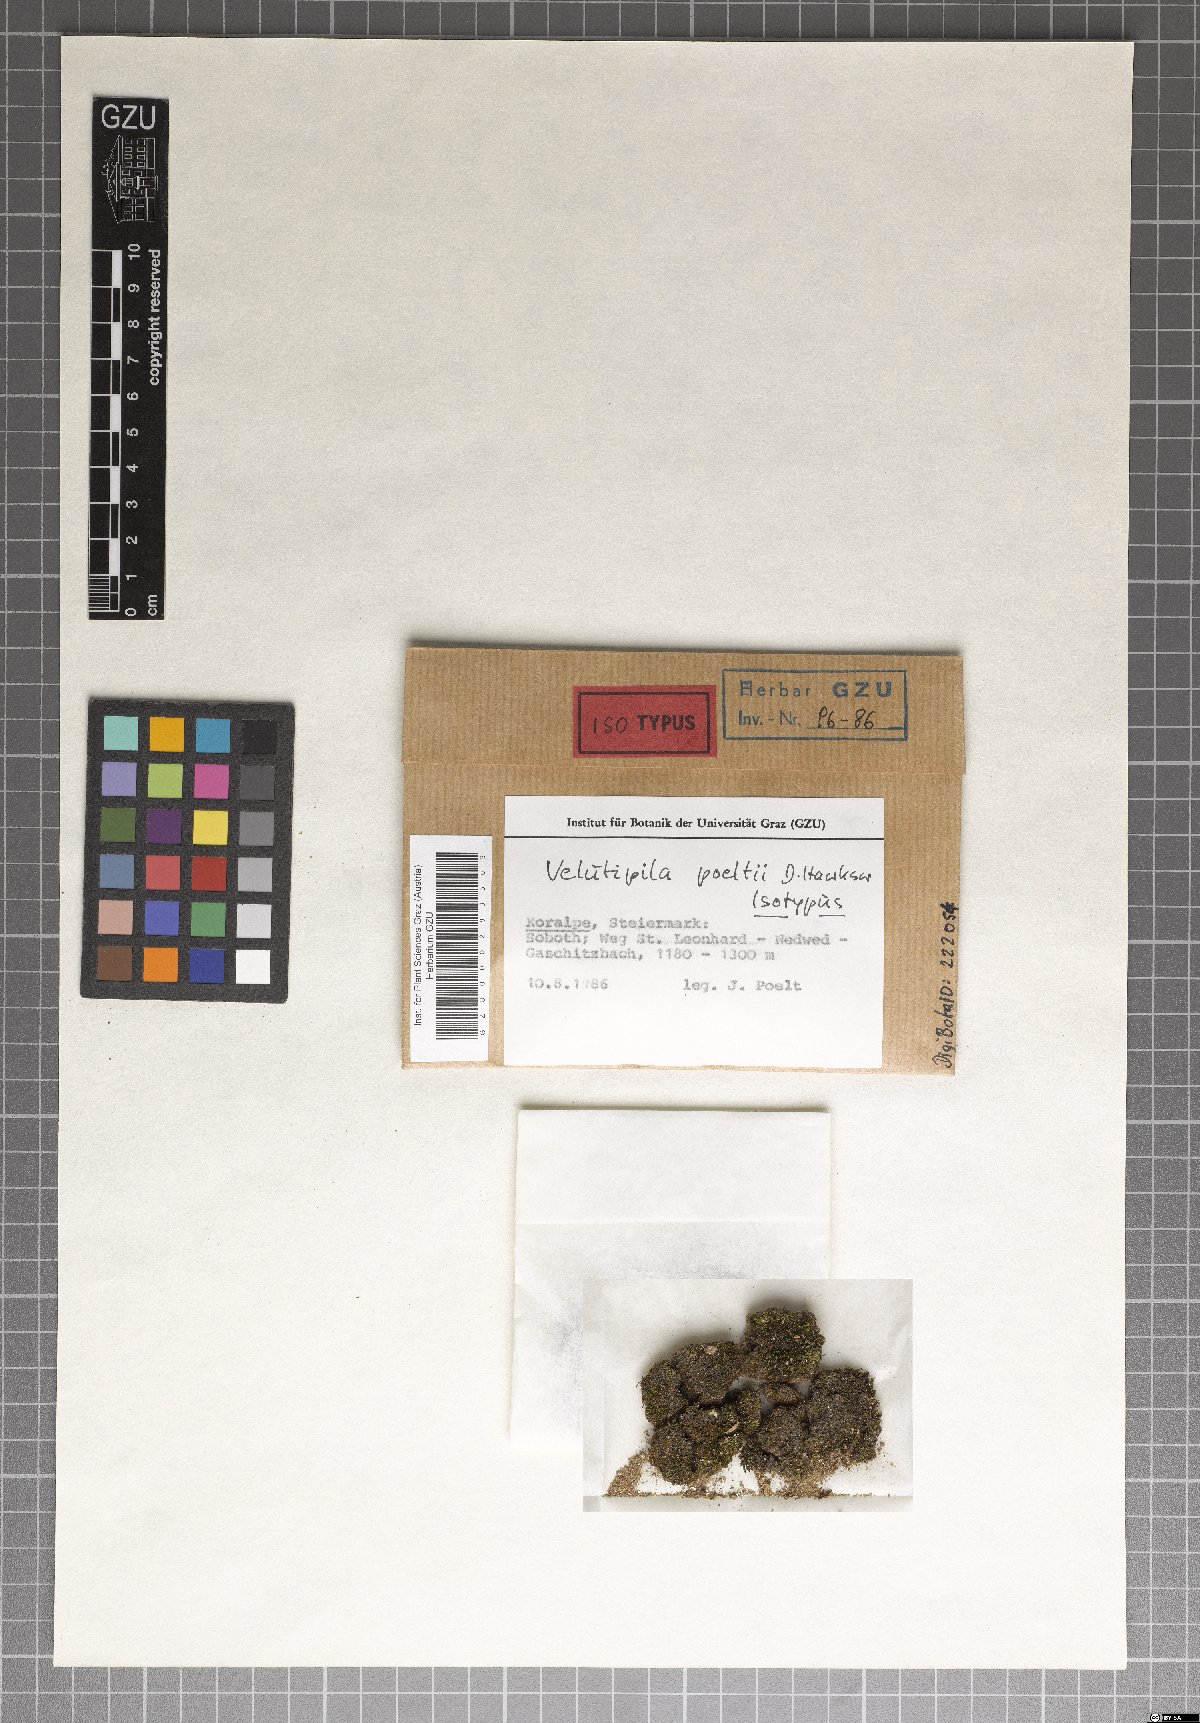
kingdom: Fungi
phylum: Ascomycota
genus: Velutipila
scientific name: Velutipila poeltii
